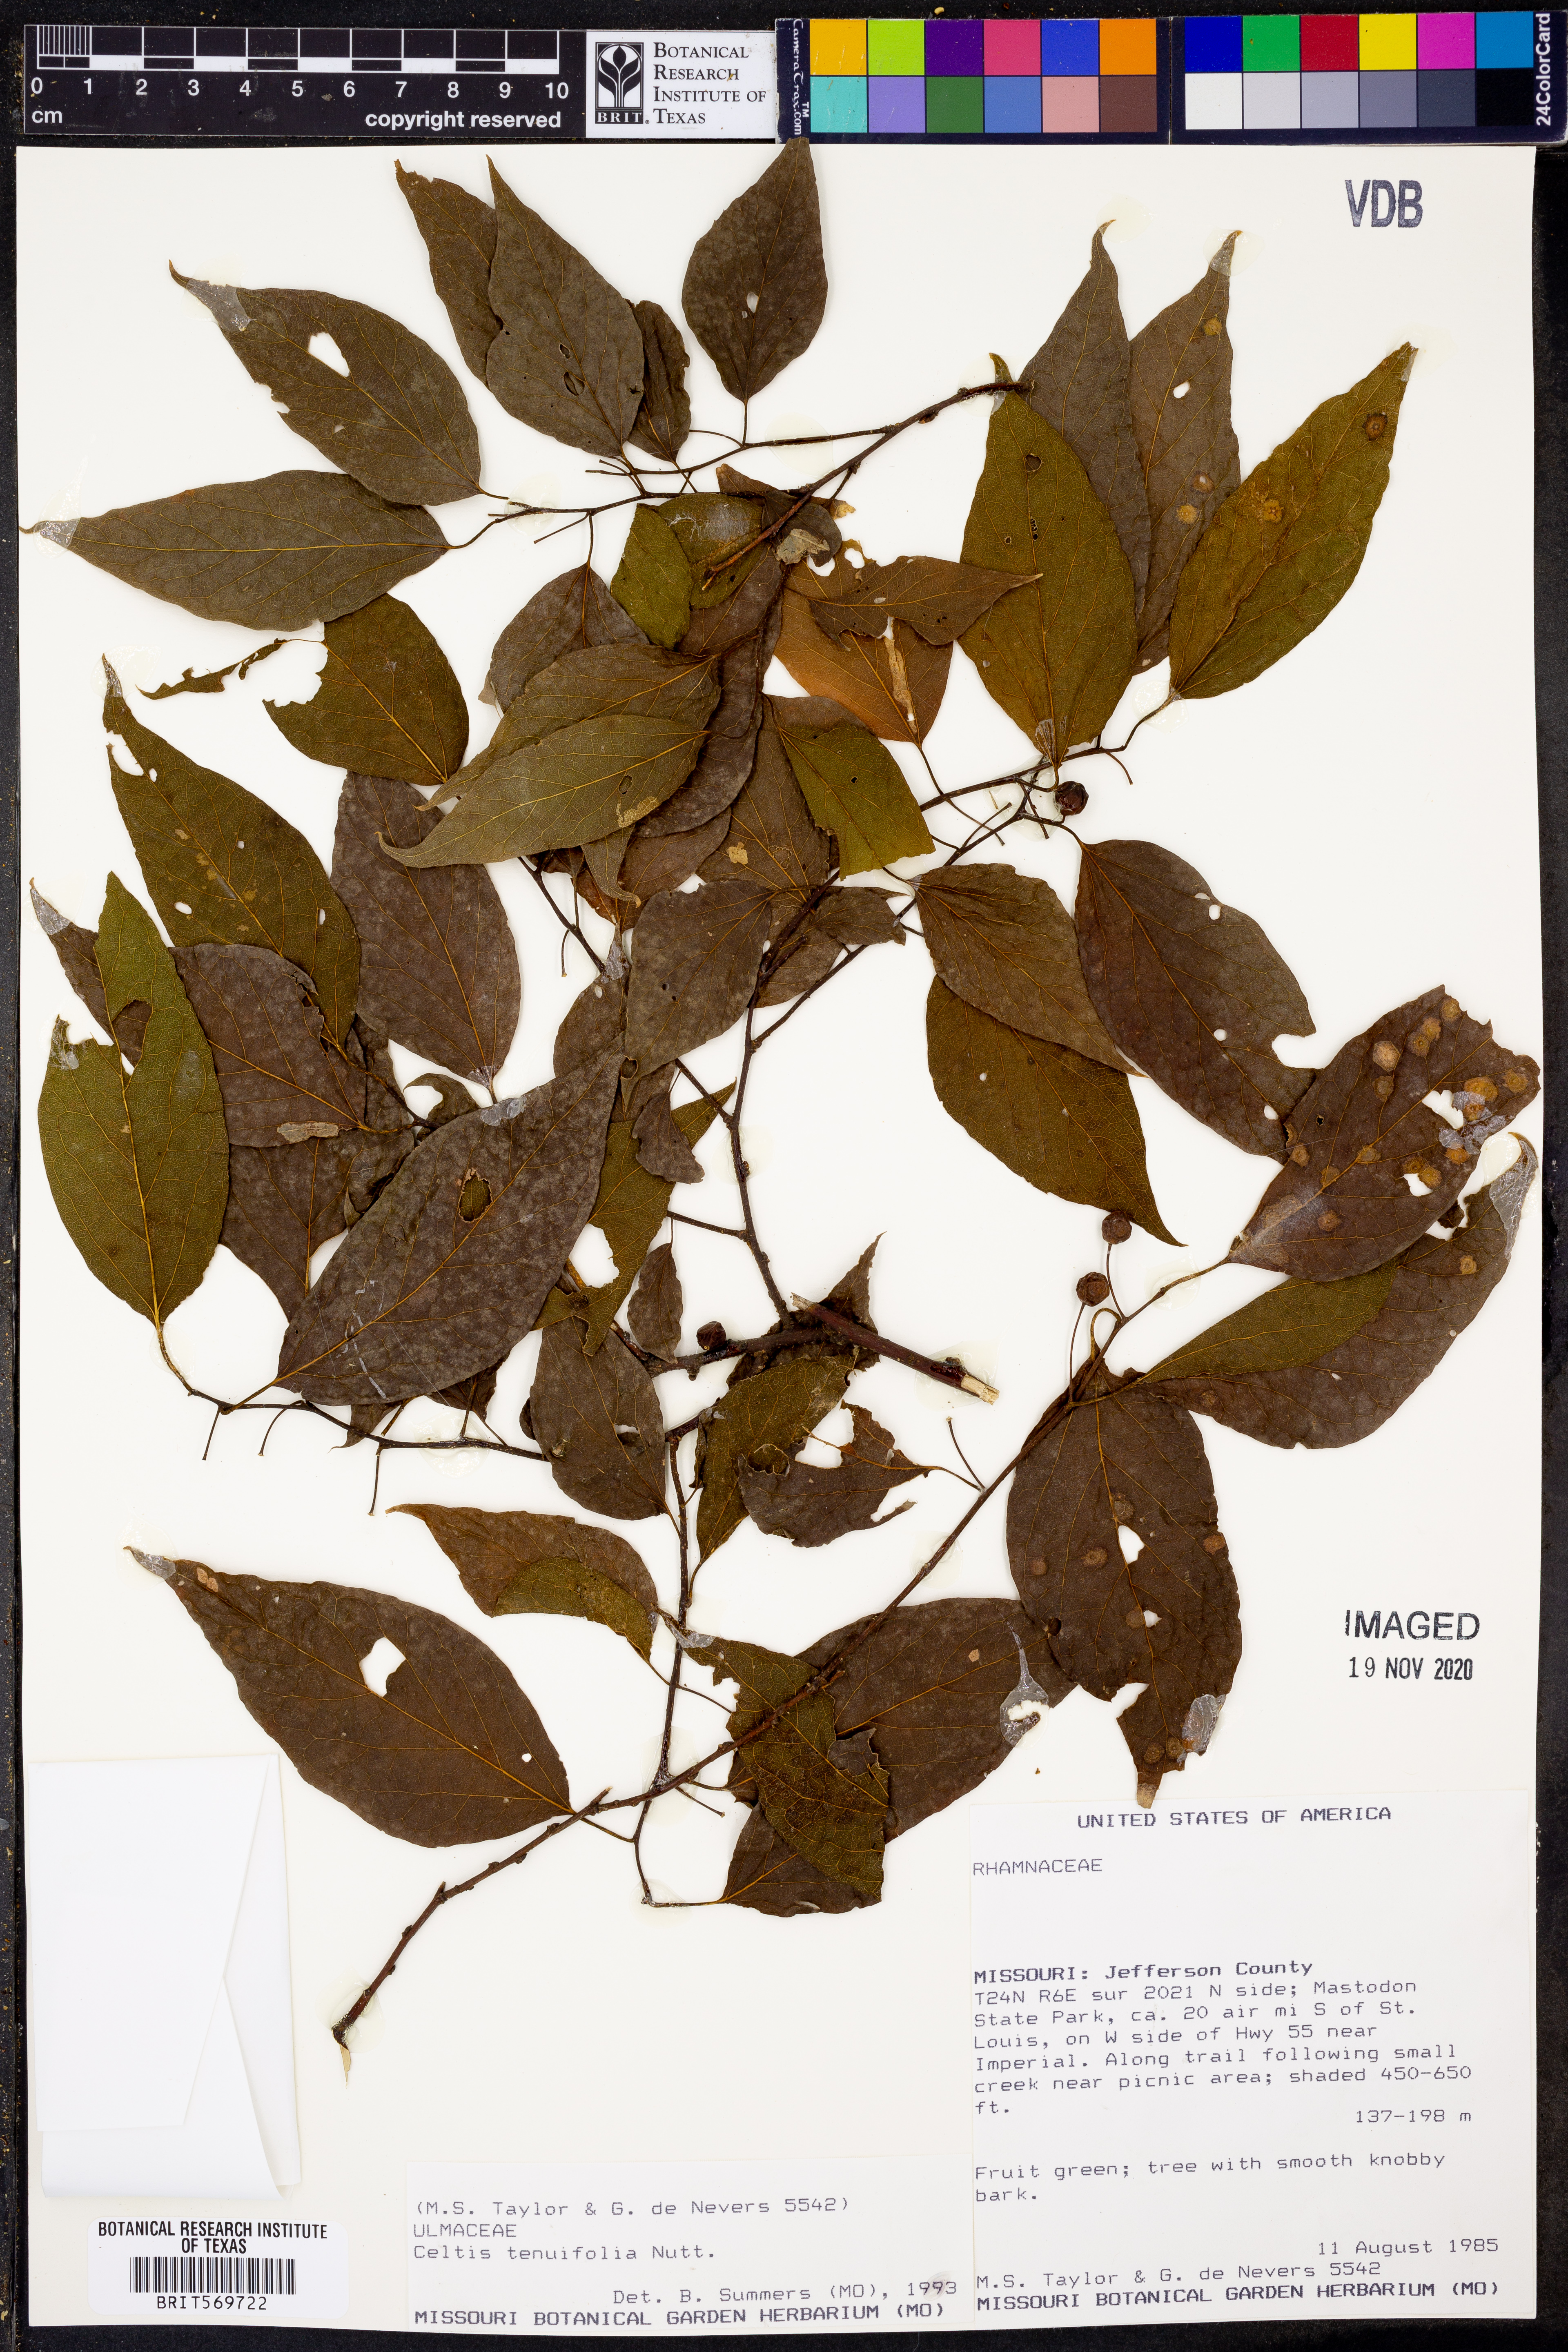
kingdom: Plantae
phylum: Tracheophyta
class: Magnoliopsida
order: Rosales
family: Cannabaceae
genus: Celtis
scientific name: Celtis tenuifolia
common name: Georgia hackberry
